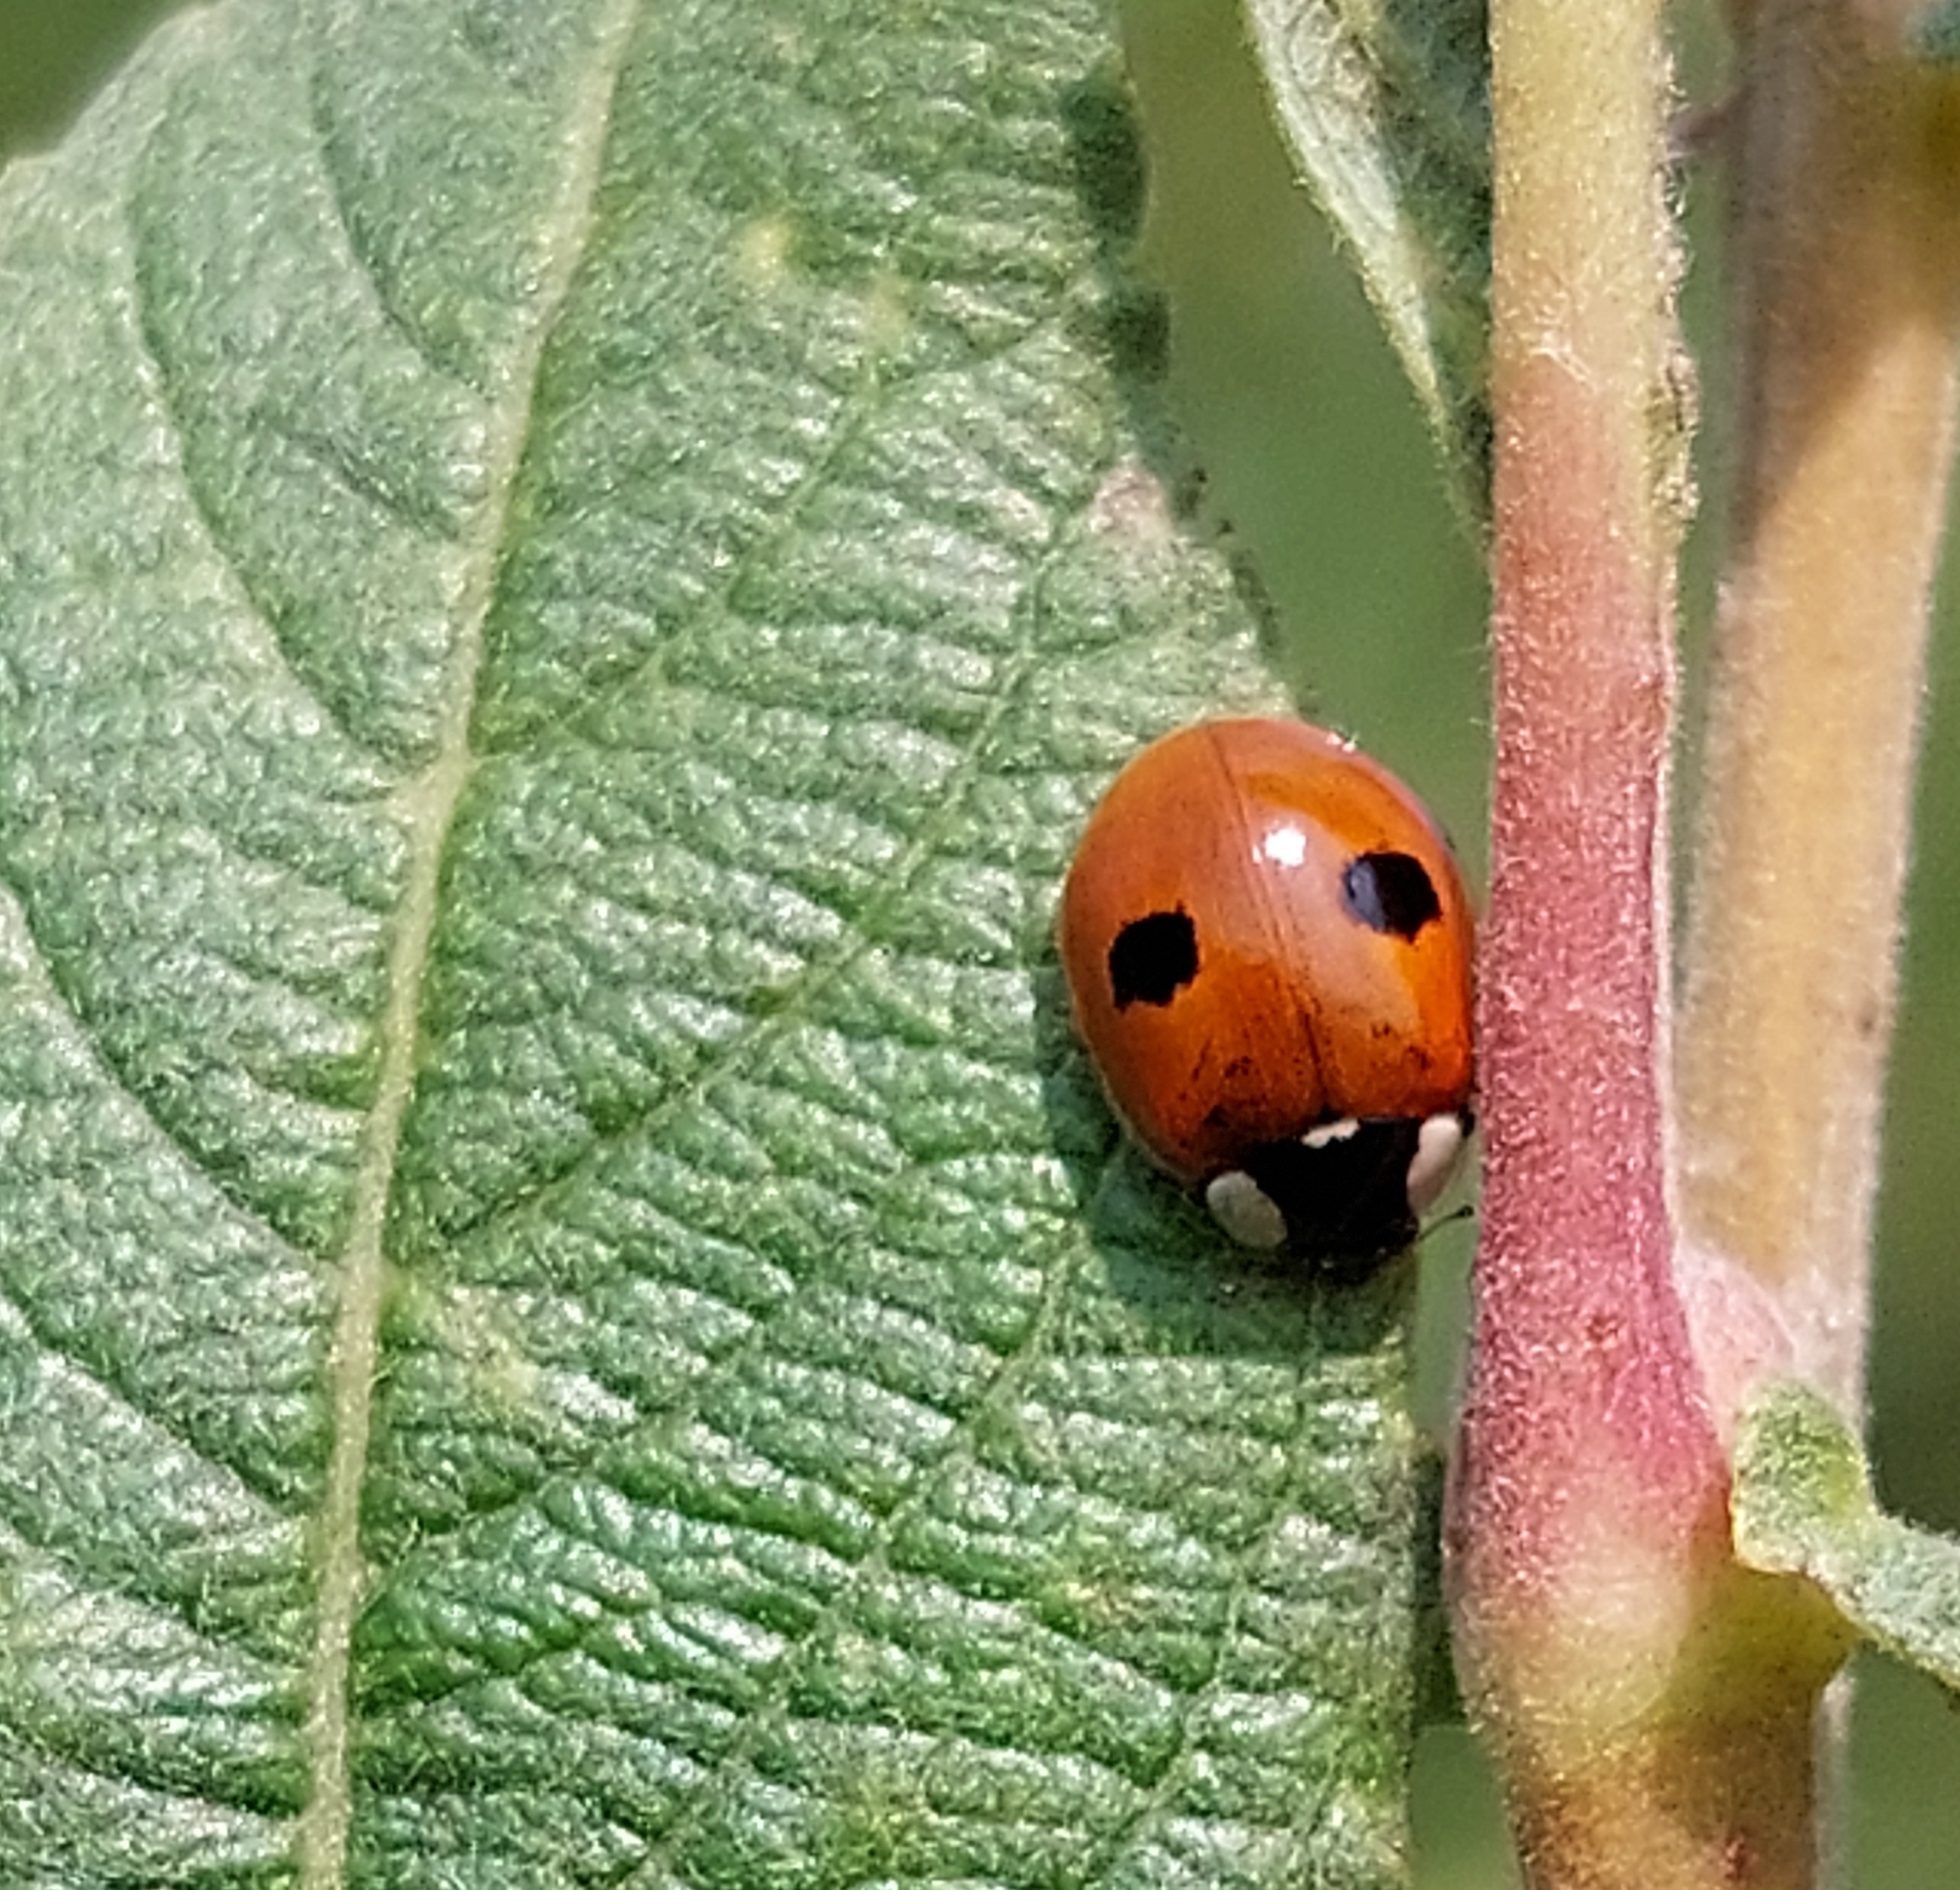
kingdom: Animalia
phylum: Arthropoda
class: Insecta
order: Coleoptera
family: Coccinellidae
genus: Adalia
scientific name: Adalia bipunctata
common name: Toplettet mariehøne
